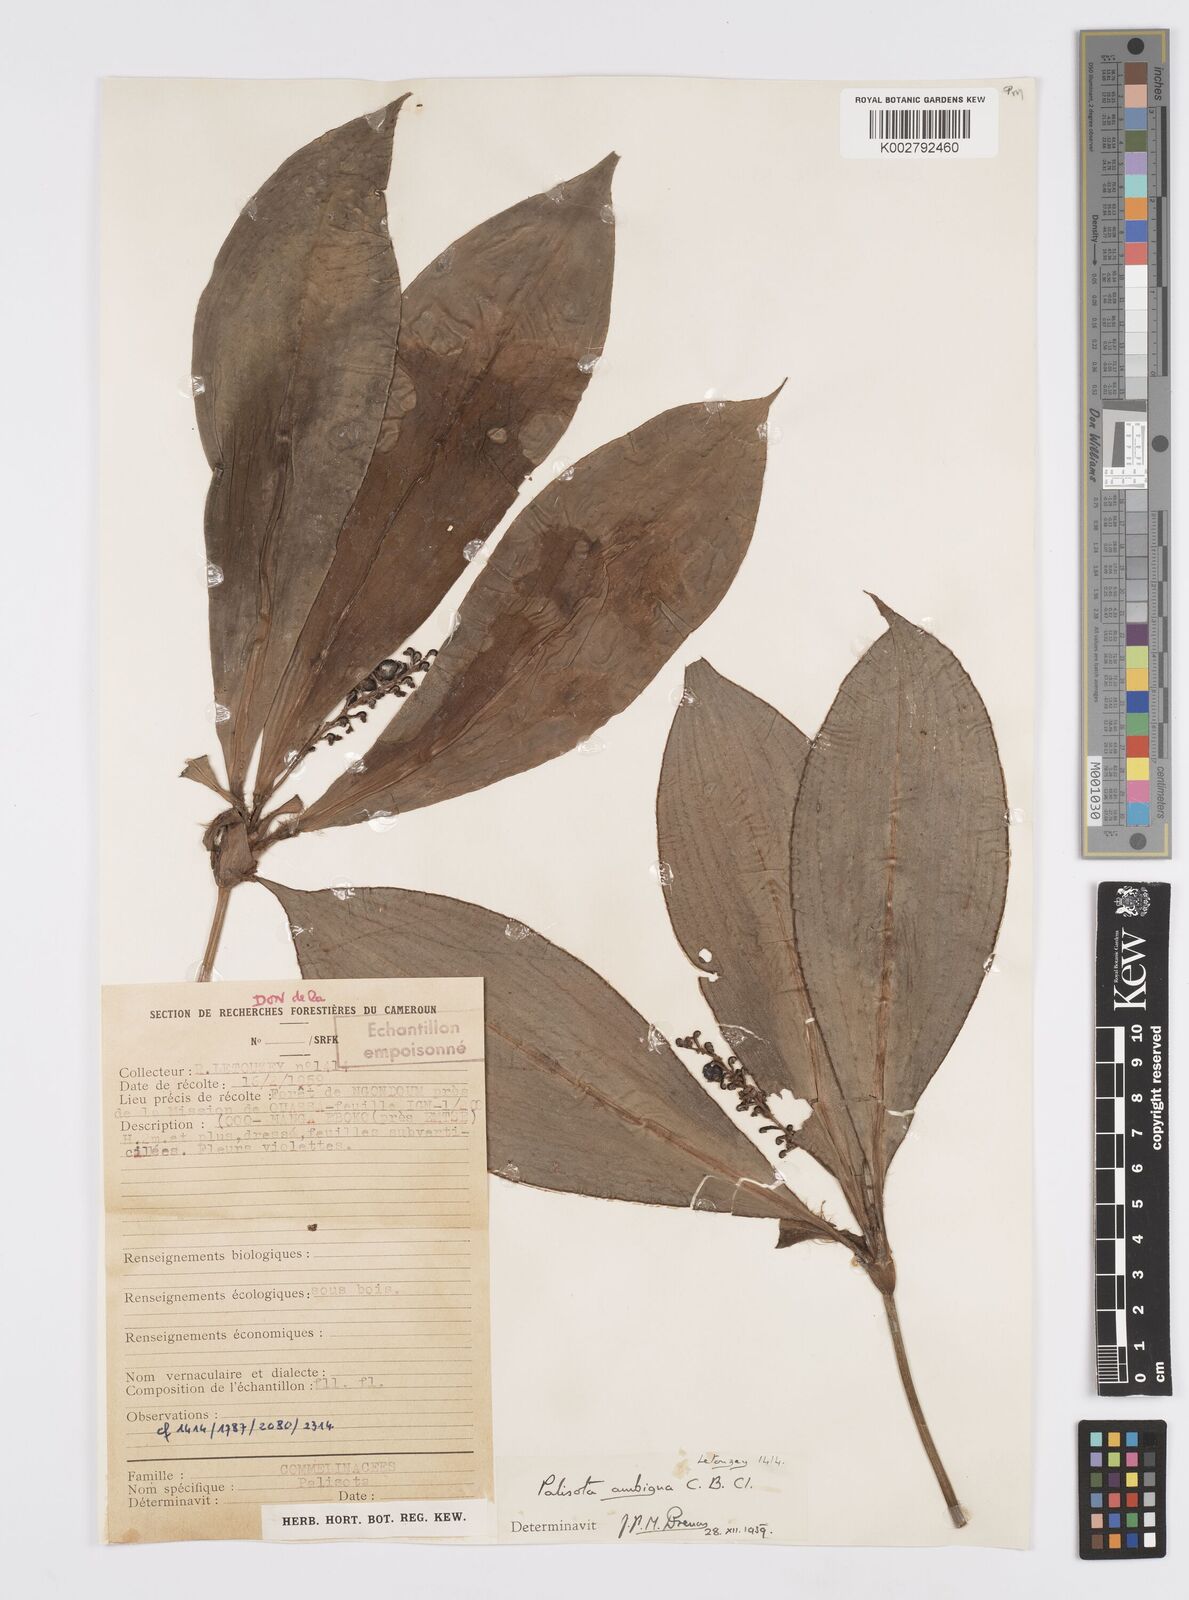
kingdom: Plantae
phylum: Tracheophyta
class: Liliopsida
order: Commelinales
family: Commelinaceae
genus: Palisota
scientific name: Palisota ambigua
